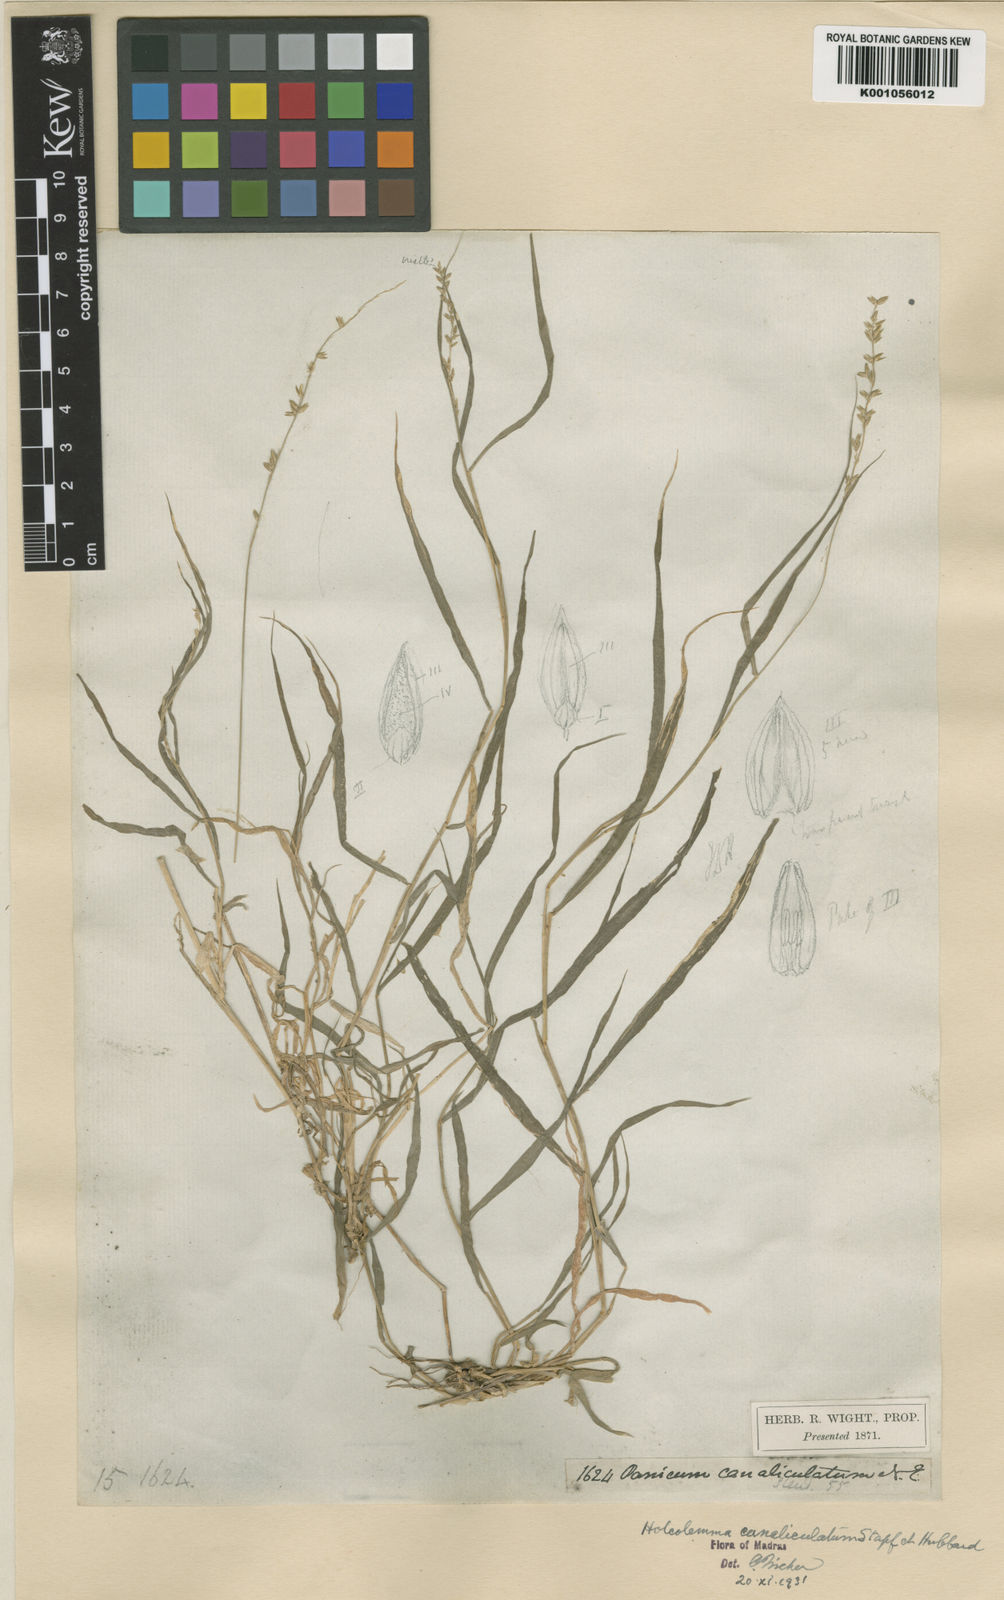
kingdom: Plantae
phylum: Tracheophyta
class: Liliopsida
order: Poales
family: Poaceae
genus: Holcolemma
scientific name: Holcolemma canaliculatum
